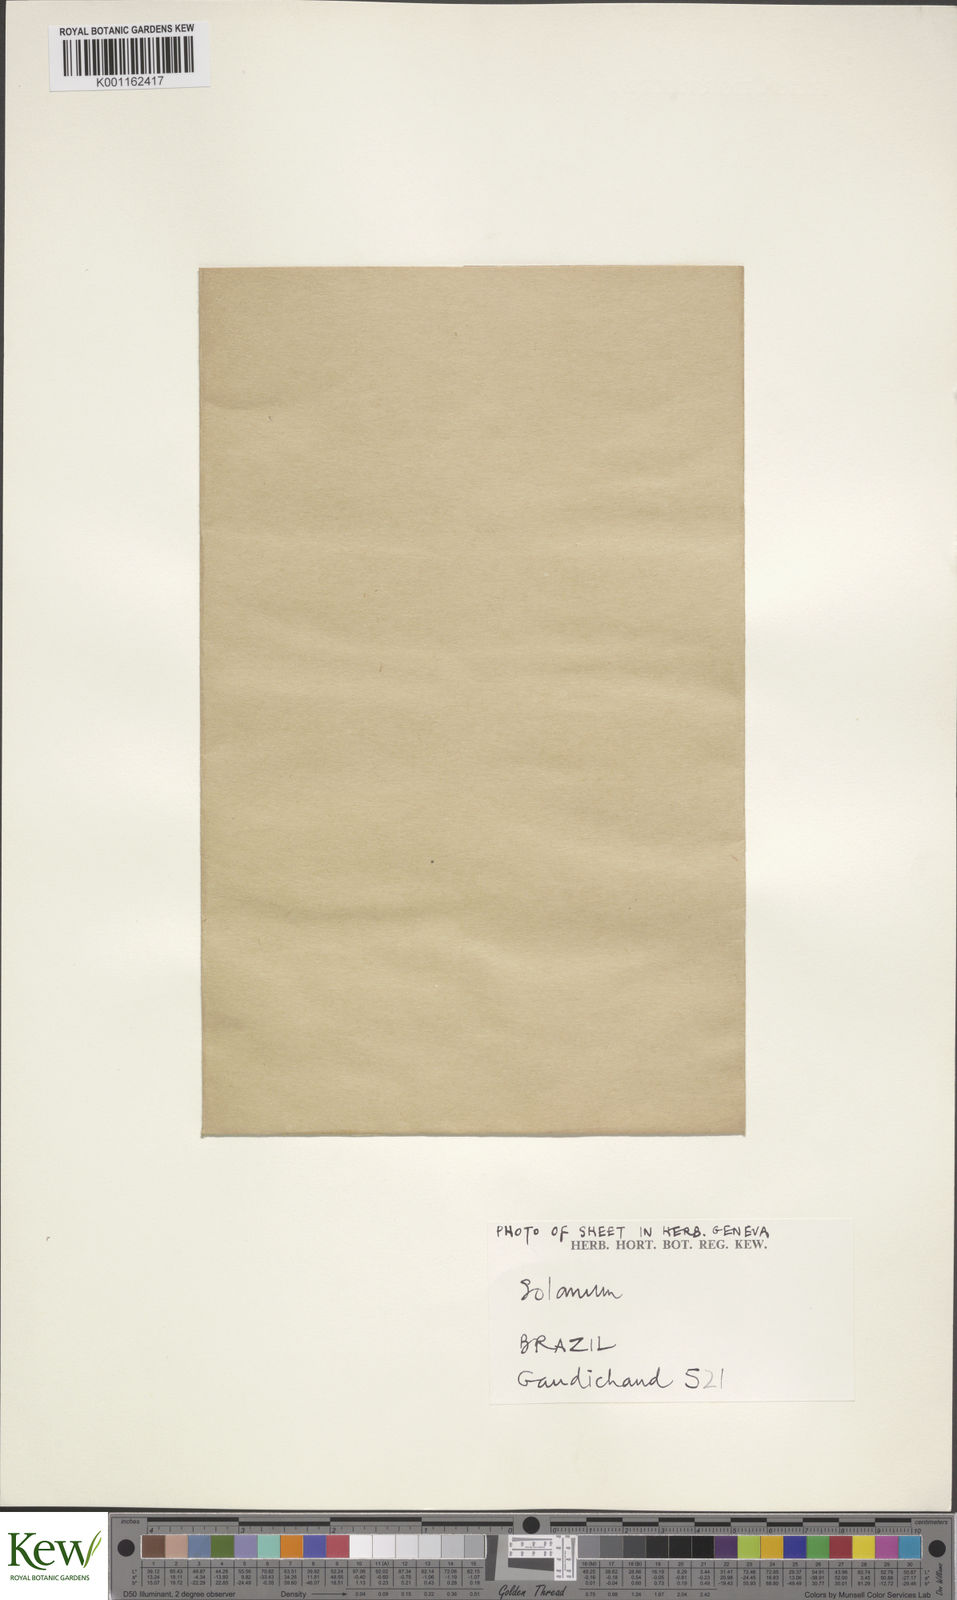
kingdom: Plantae
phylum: Tracheophyta
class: Magnoliopsida
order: Solanales
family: Solanaceae
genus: Solanum
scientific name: Solanum americanum
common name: American black nightshade
